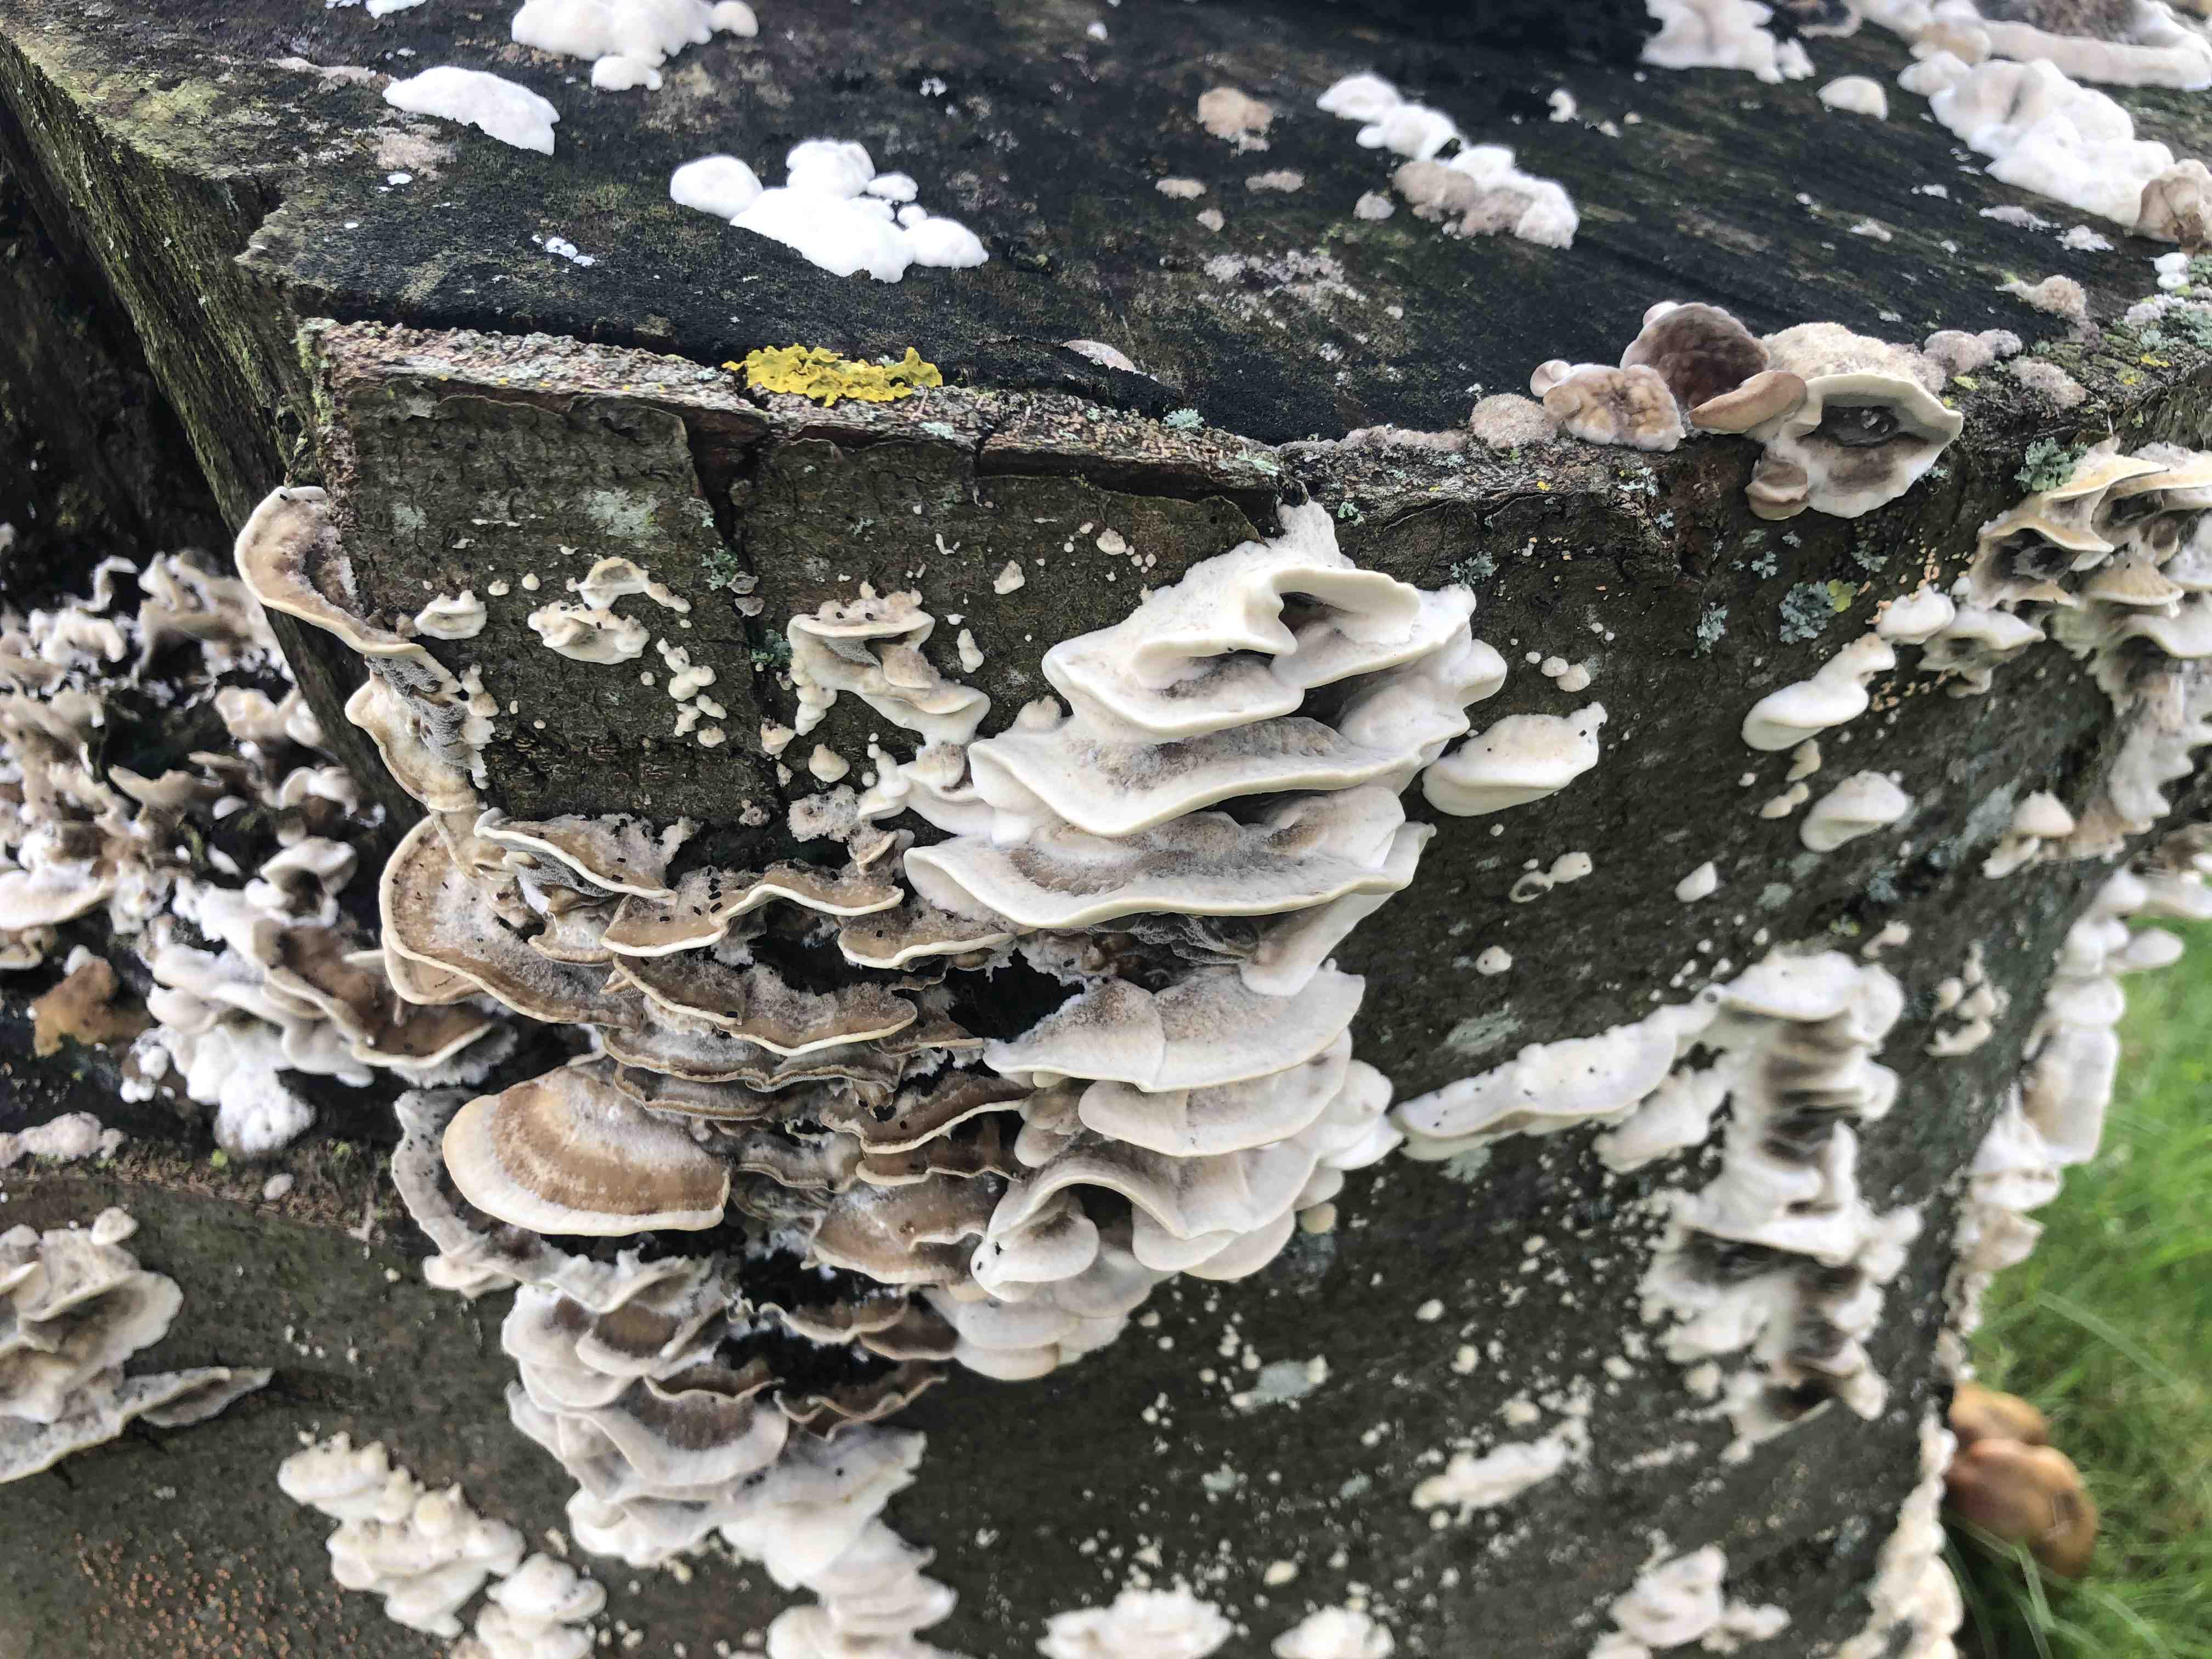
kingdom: Fungi
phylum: Basidiomycota
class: Agaricomycetes
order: Polyporales
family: Phanerochaetaceae
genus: Bjerkandera
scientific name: Bjerkandera adusta
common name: sveden sodporesvamp
